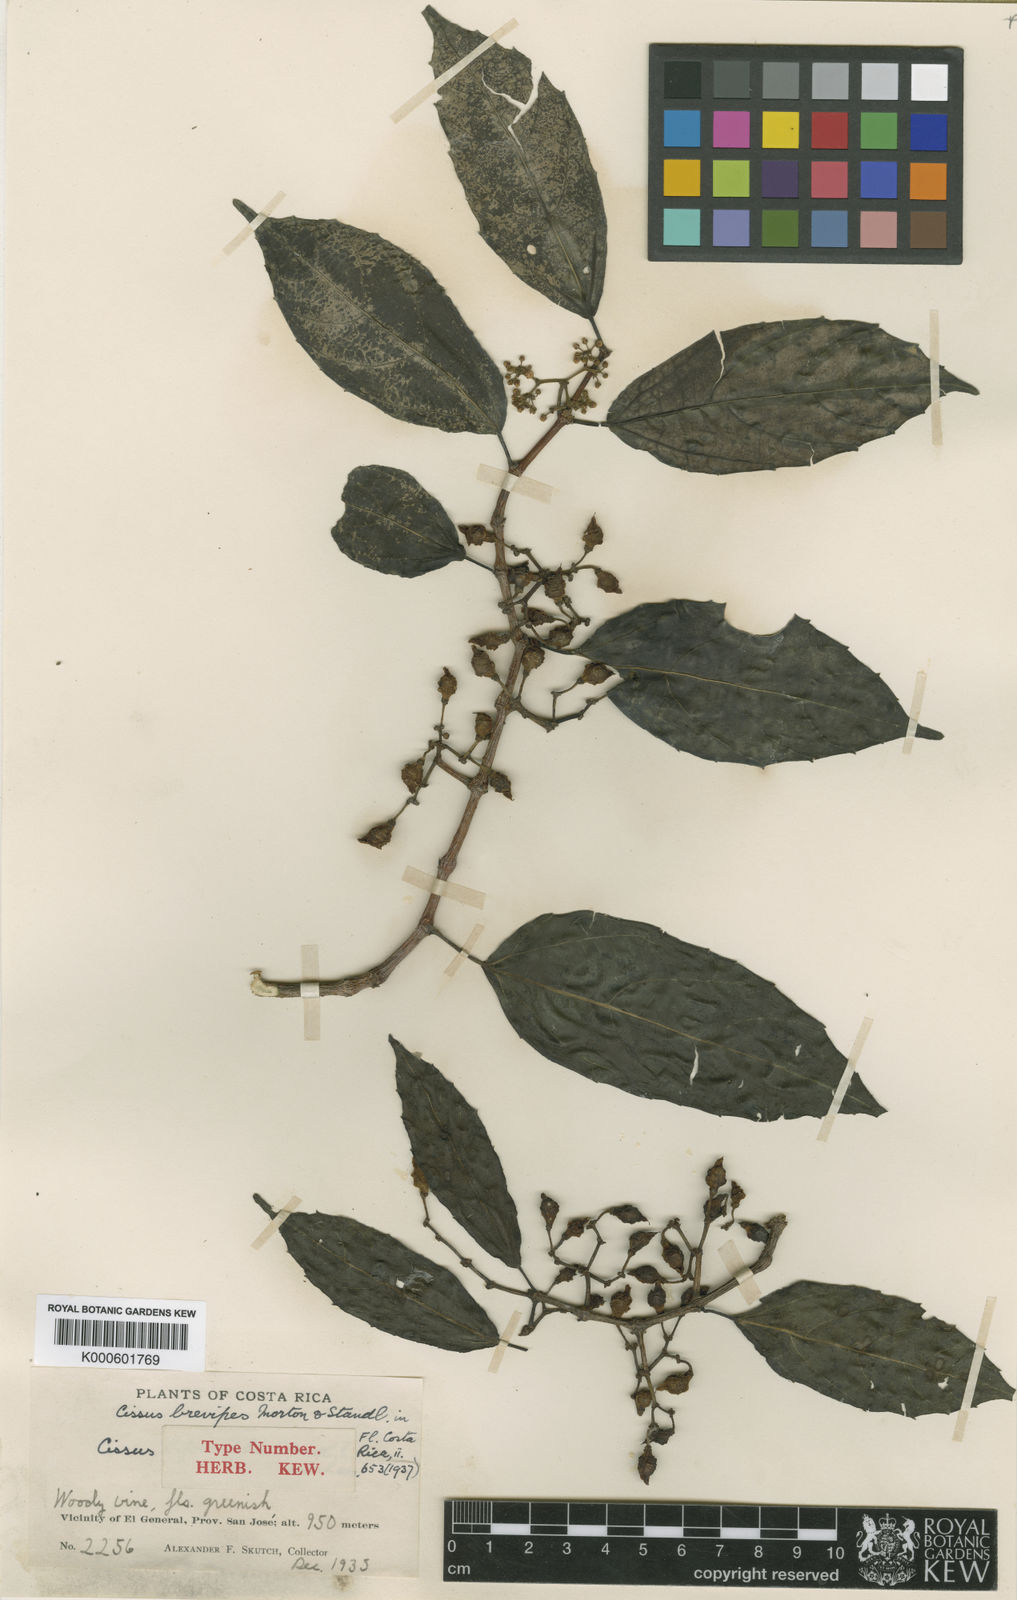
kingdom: Plantae
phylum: Tracheophyta
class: Magnoliopsida
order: Vitales
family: Vitaceae
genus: Cissus
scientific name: Cissus brevipes
